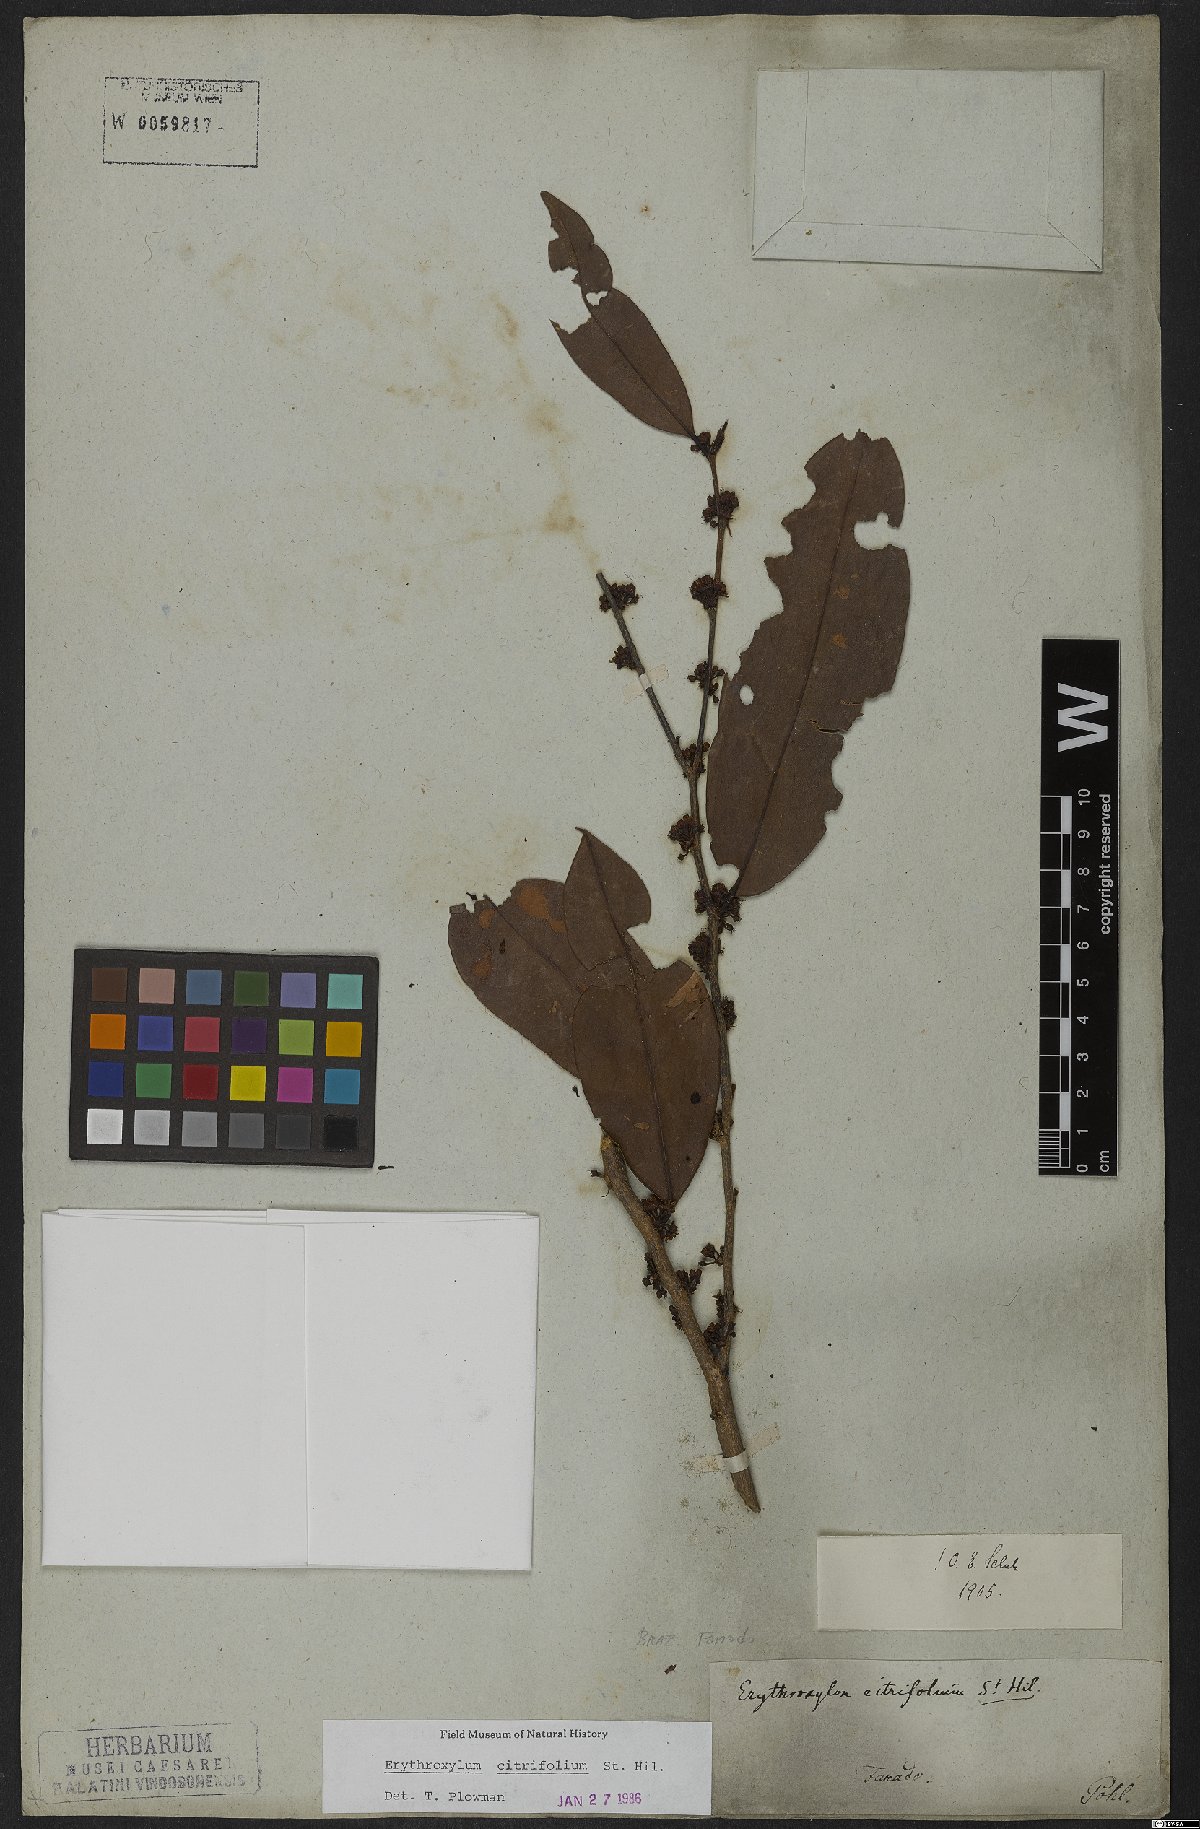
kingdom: Plantae
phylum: Tracheophyta
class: Magnoliopsida
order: Malpighiales
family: Erythroxylaceae
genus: Erythroxylum
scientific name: Erythroxylum citrifolium
